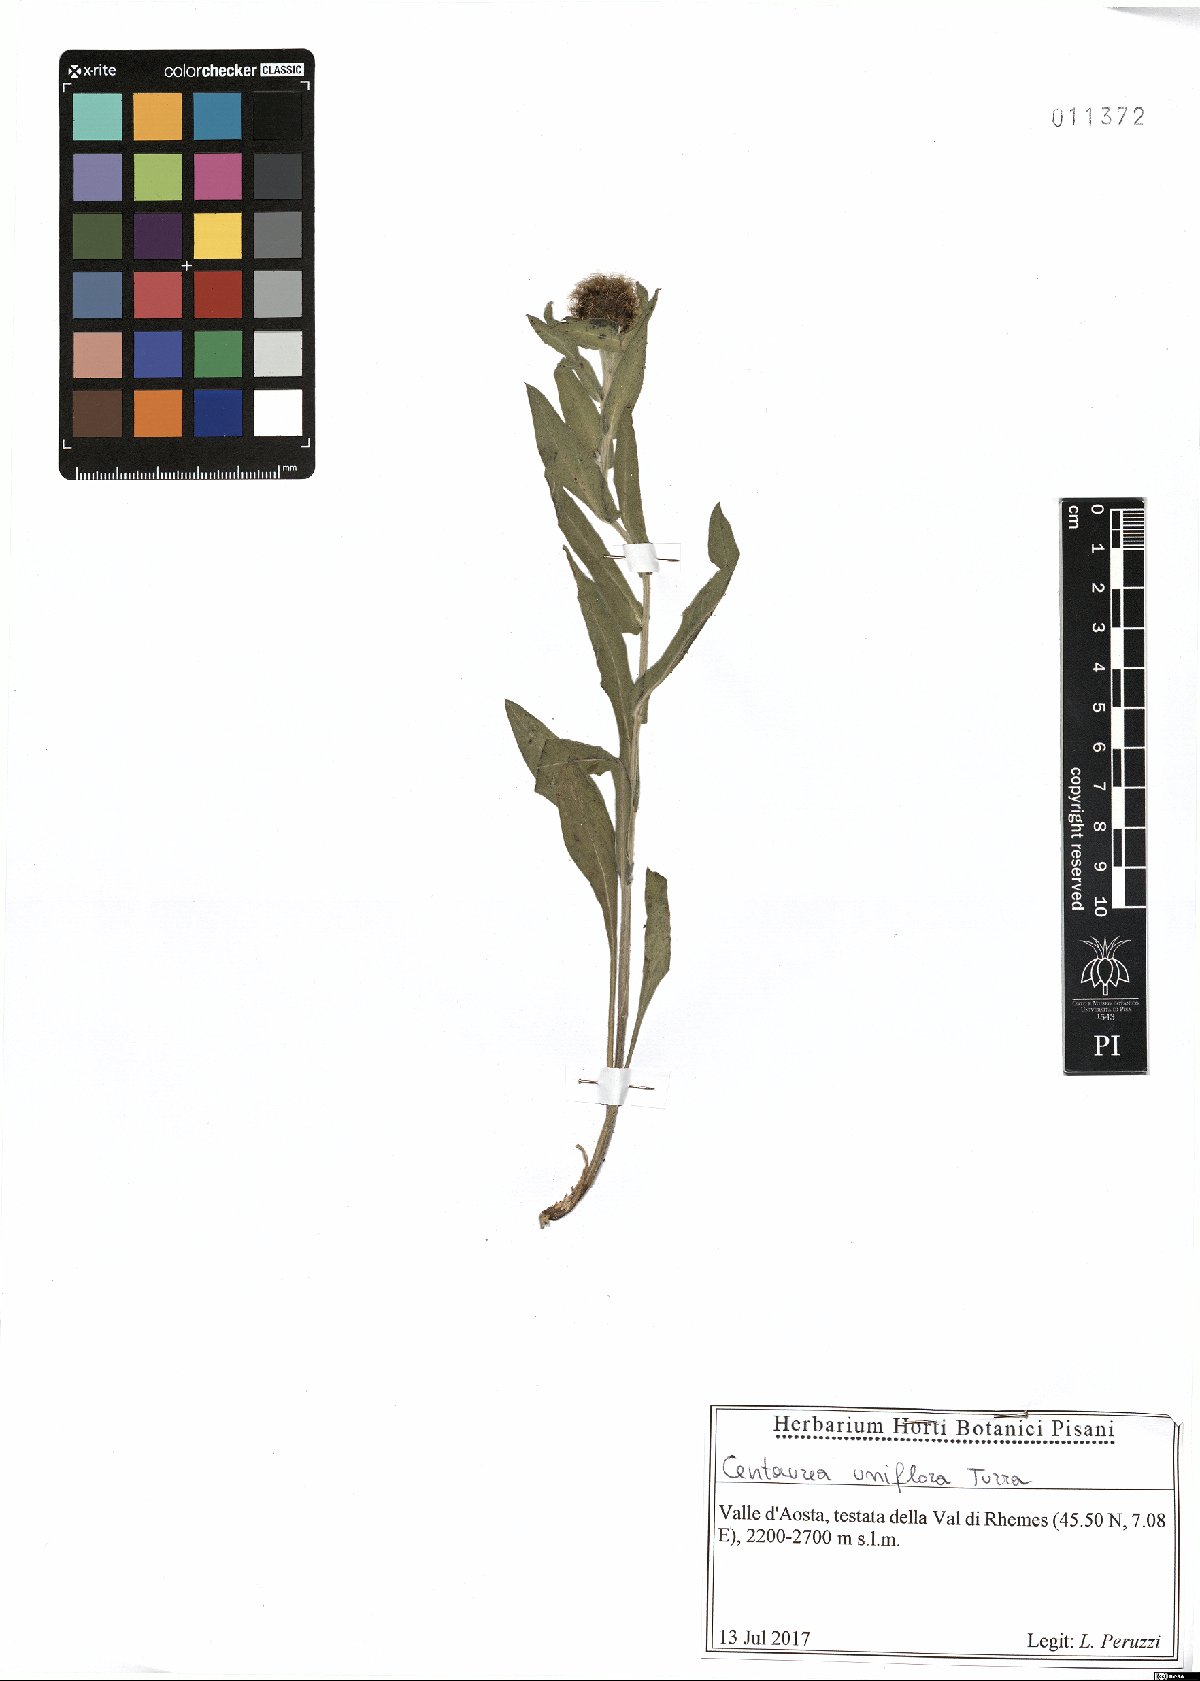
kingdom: Plantae
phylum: Tracheophyta
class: Magnoliopsida
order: Asterales
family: Asteraceae
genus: Centaurea
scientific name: Centaurea uniflora
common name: Singleflower knapweed
